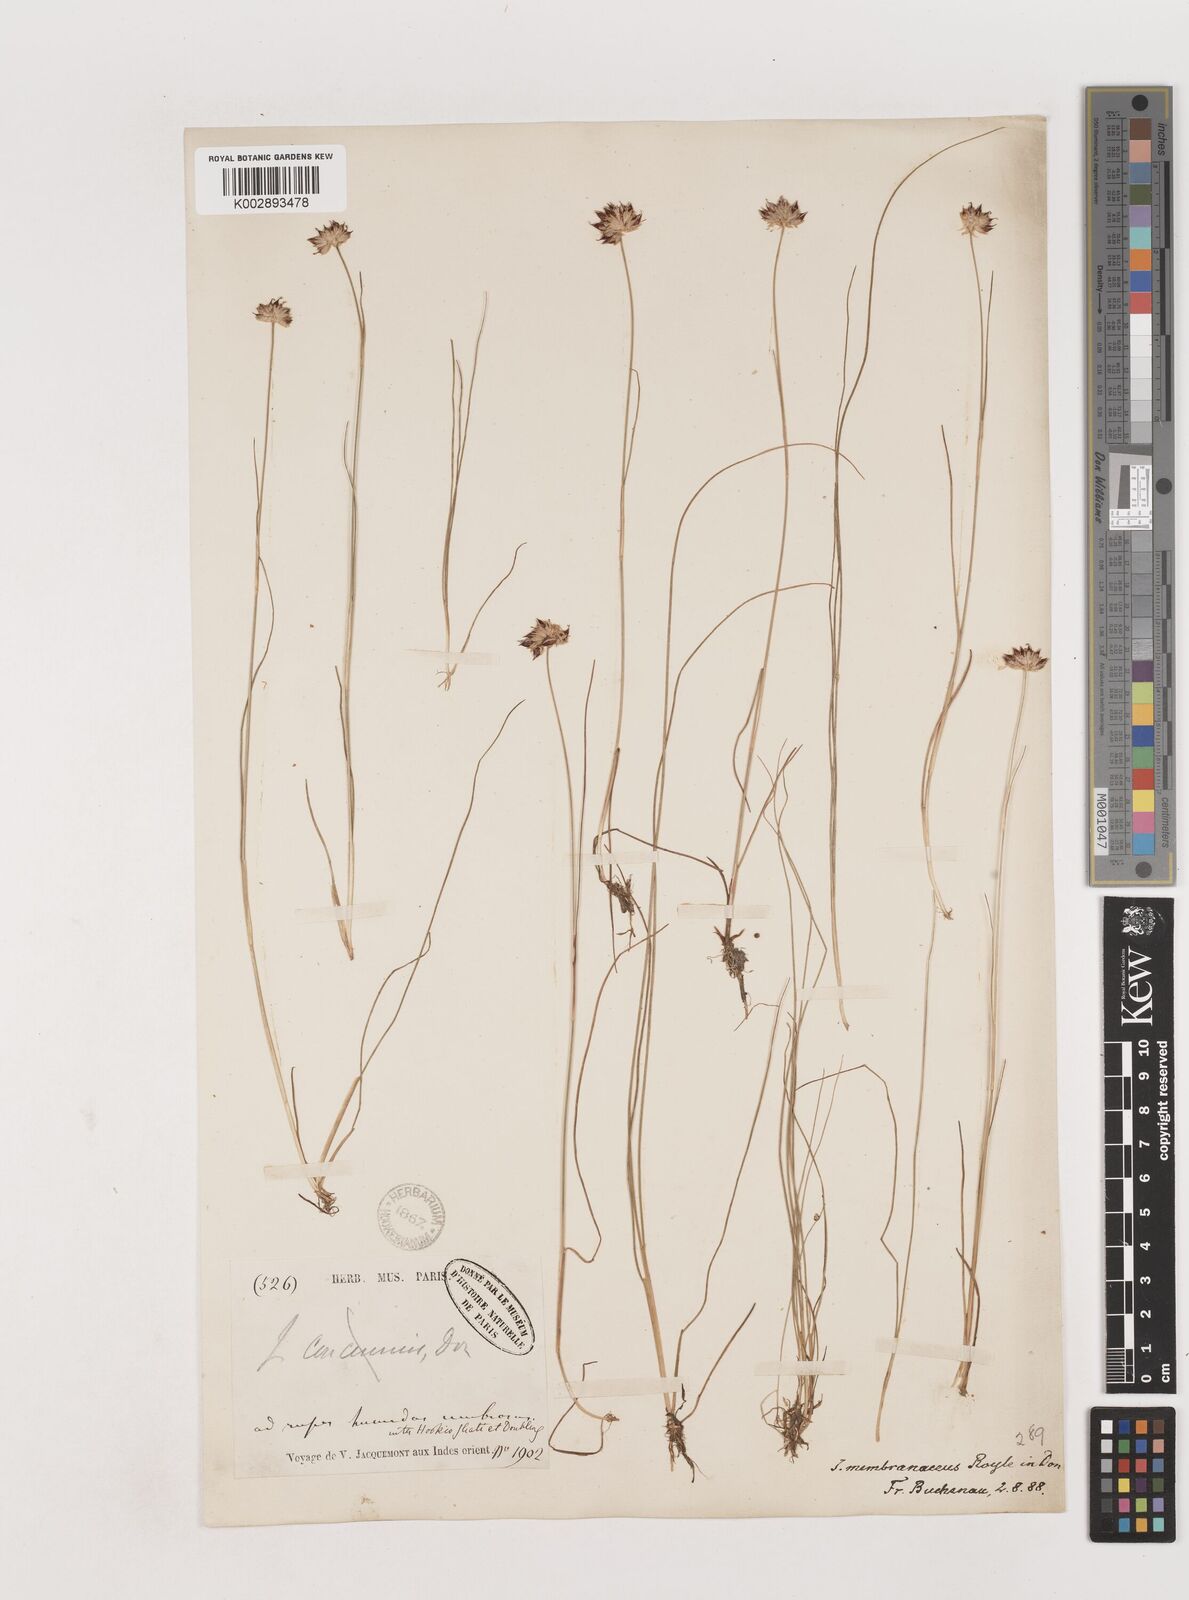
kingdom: Plantae
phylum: Tracheophyta
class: Liliopsida
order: Poales
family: Juncaceae
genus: Juncus
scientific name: Juncus membranaceus
